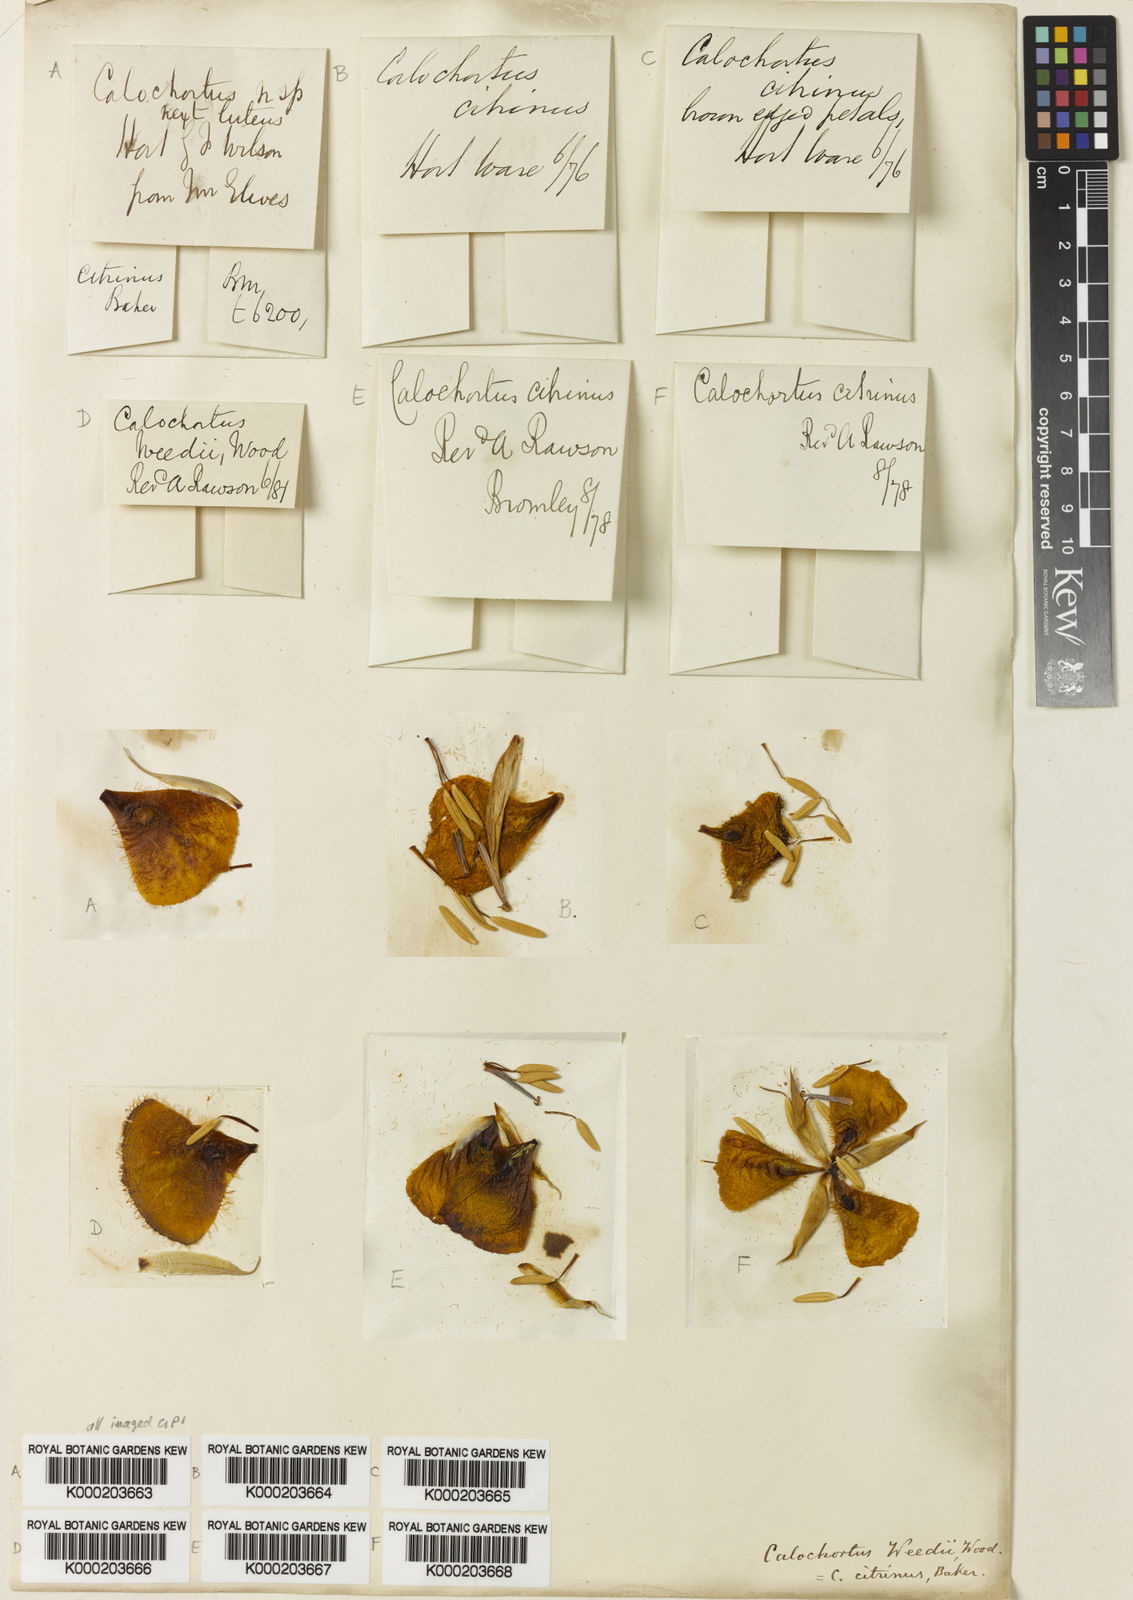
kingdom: Plantae
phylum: Tracheophyta
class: Liliopsida
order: Liliales
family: Liliaceae
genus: Calochortus
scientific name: Calochortus weedii
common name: Weed's mariposa-lily
